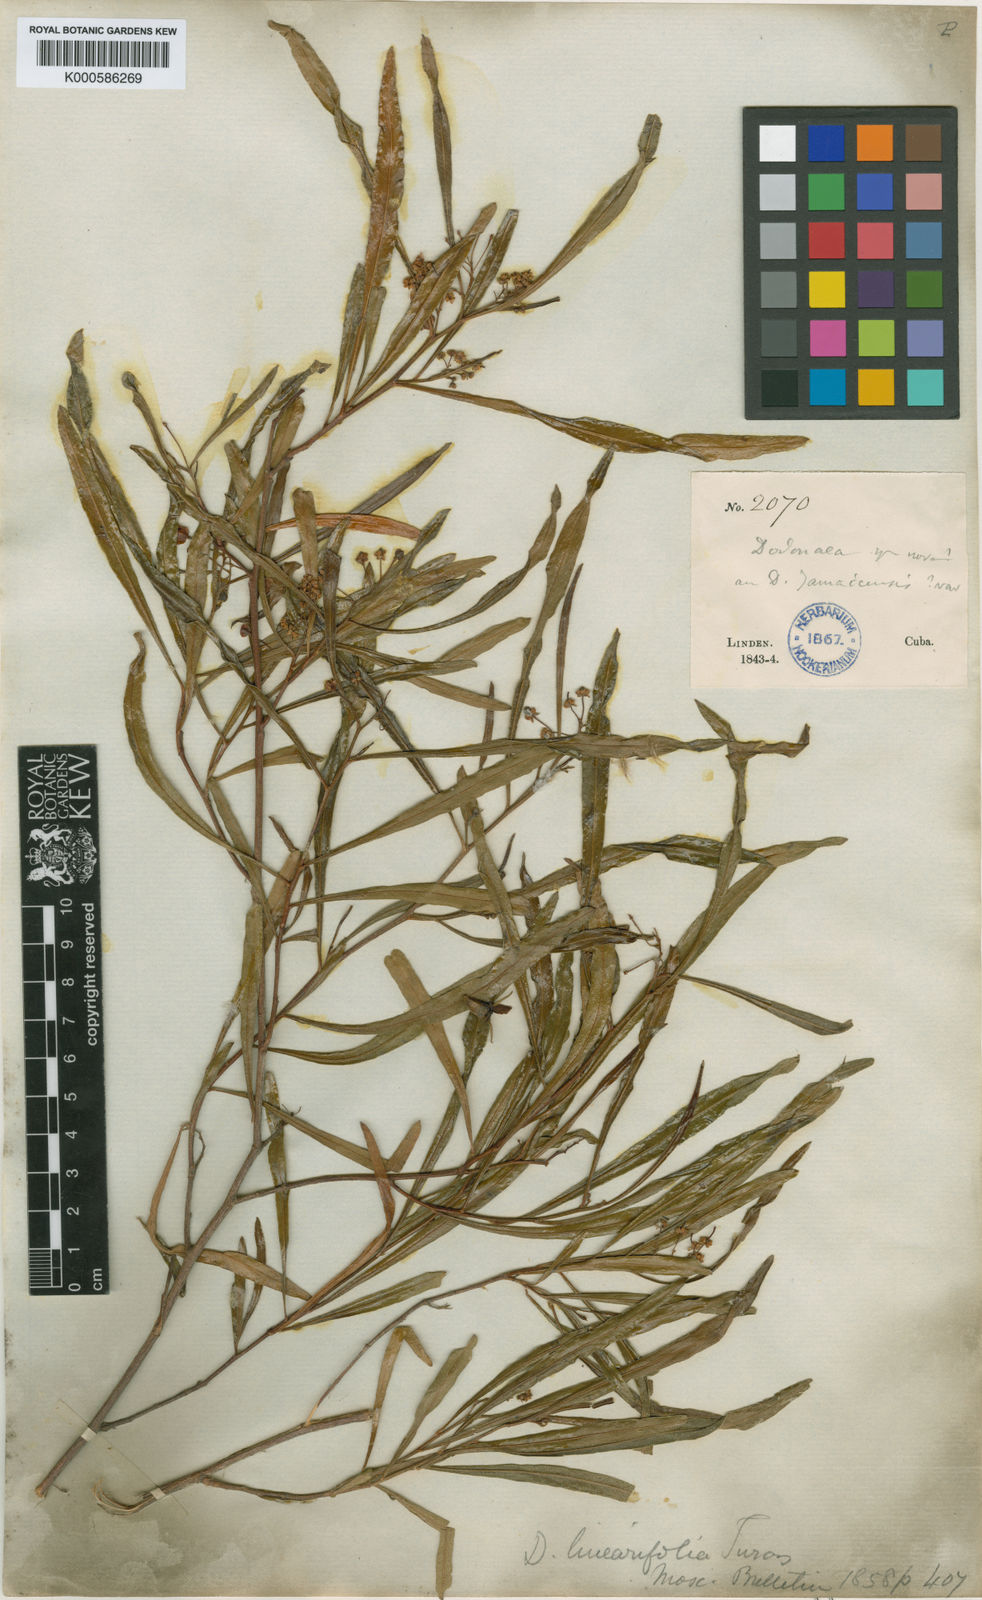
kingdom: Plantae
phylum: Tracheophyta
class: Magnoliopsida
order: Sapindales
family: Sapindaceae
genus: Dodonaea
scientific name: Dodonaea viscosa
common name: Hopbush
